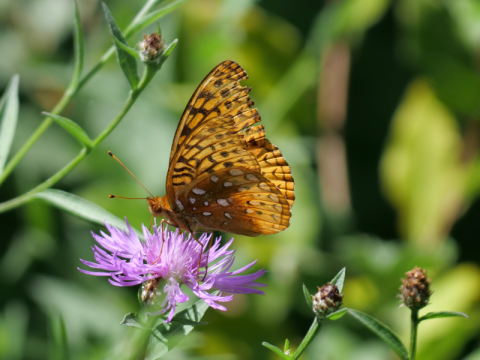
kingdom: Animalia
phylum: Arthropoda
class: Insecta
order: Lepidoptera
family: Nymphalidae
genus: Speyeria
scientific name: Speyeria cybele
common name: Great Spangled Fritillary
